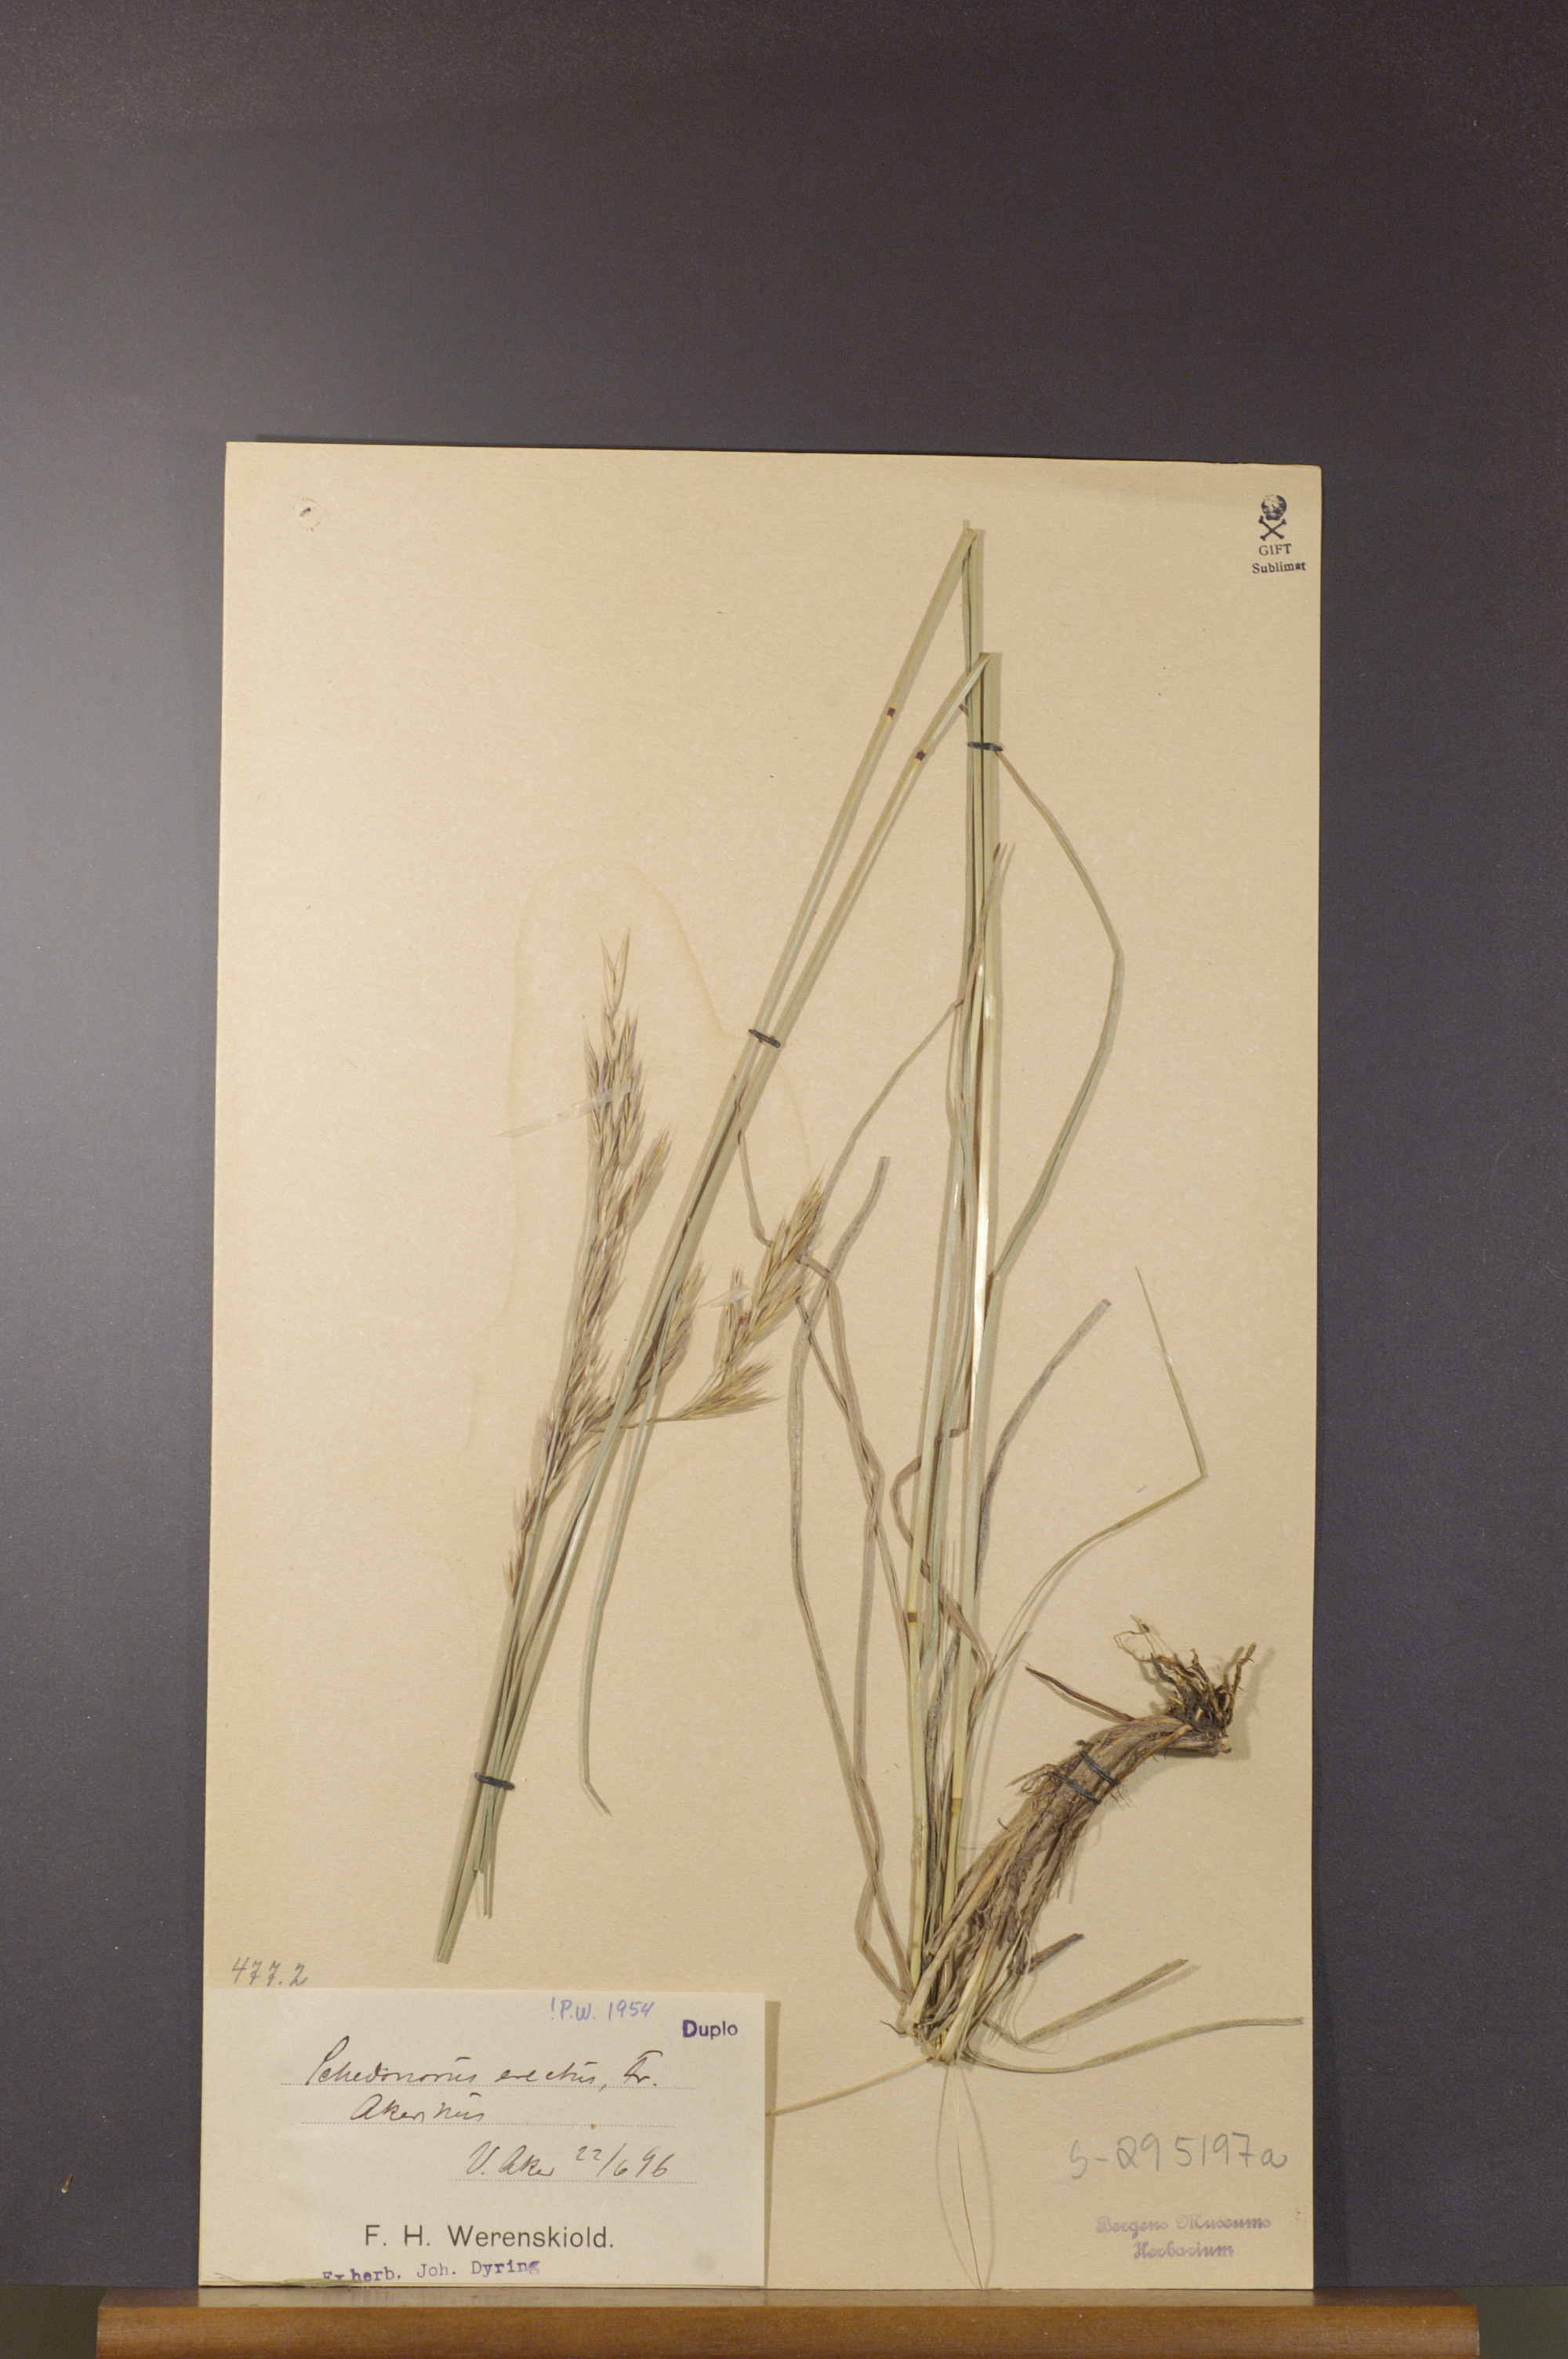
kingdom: Plantae
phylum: Tracheophyta
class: Liliopsida
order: Poales
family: Poaceae
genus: Bromus
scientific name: Bromus erectus
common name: Erect brome
